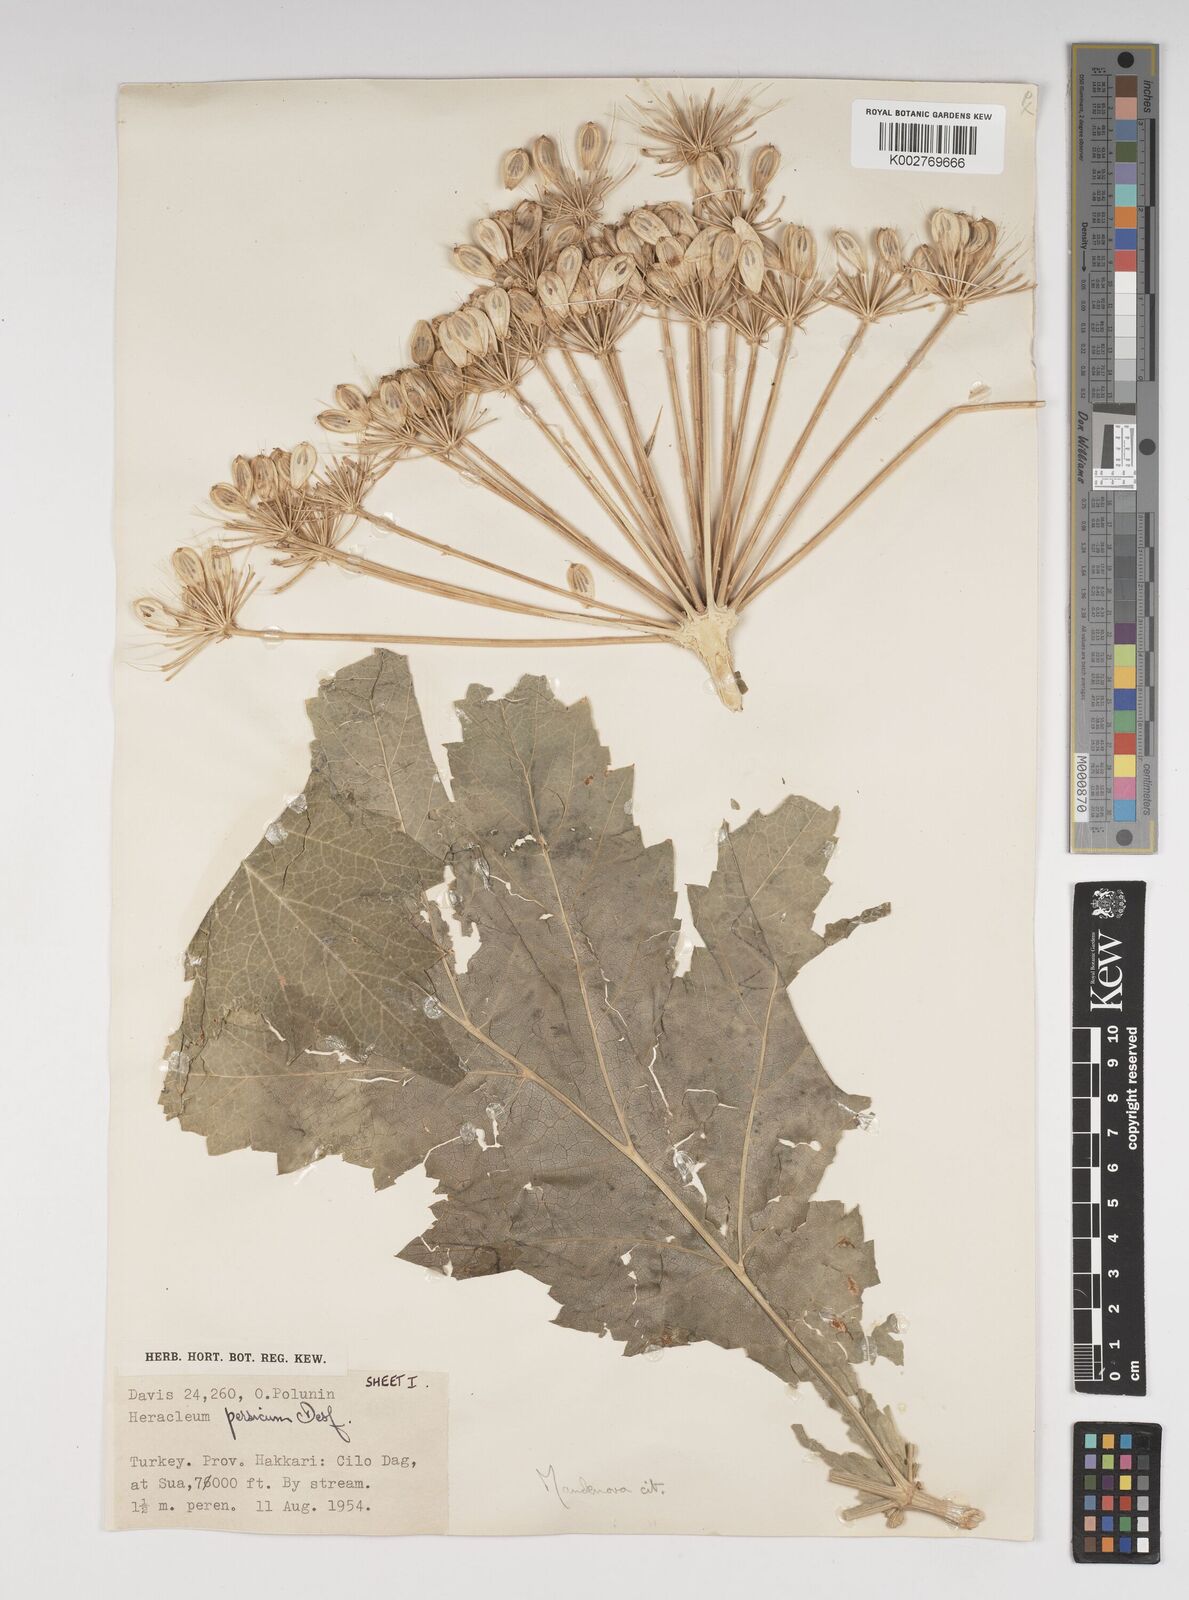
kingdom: Plantae
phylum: Tracheophyta
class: Magnoliopsida
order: Apiales
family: Apiaceae
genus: Heracleum
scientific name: Heracleum persicum
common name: Persian hogweed
